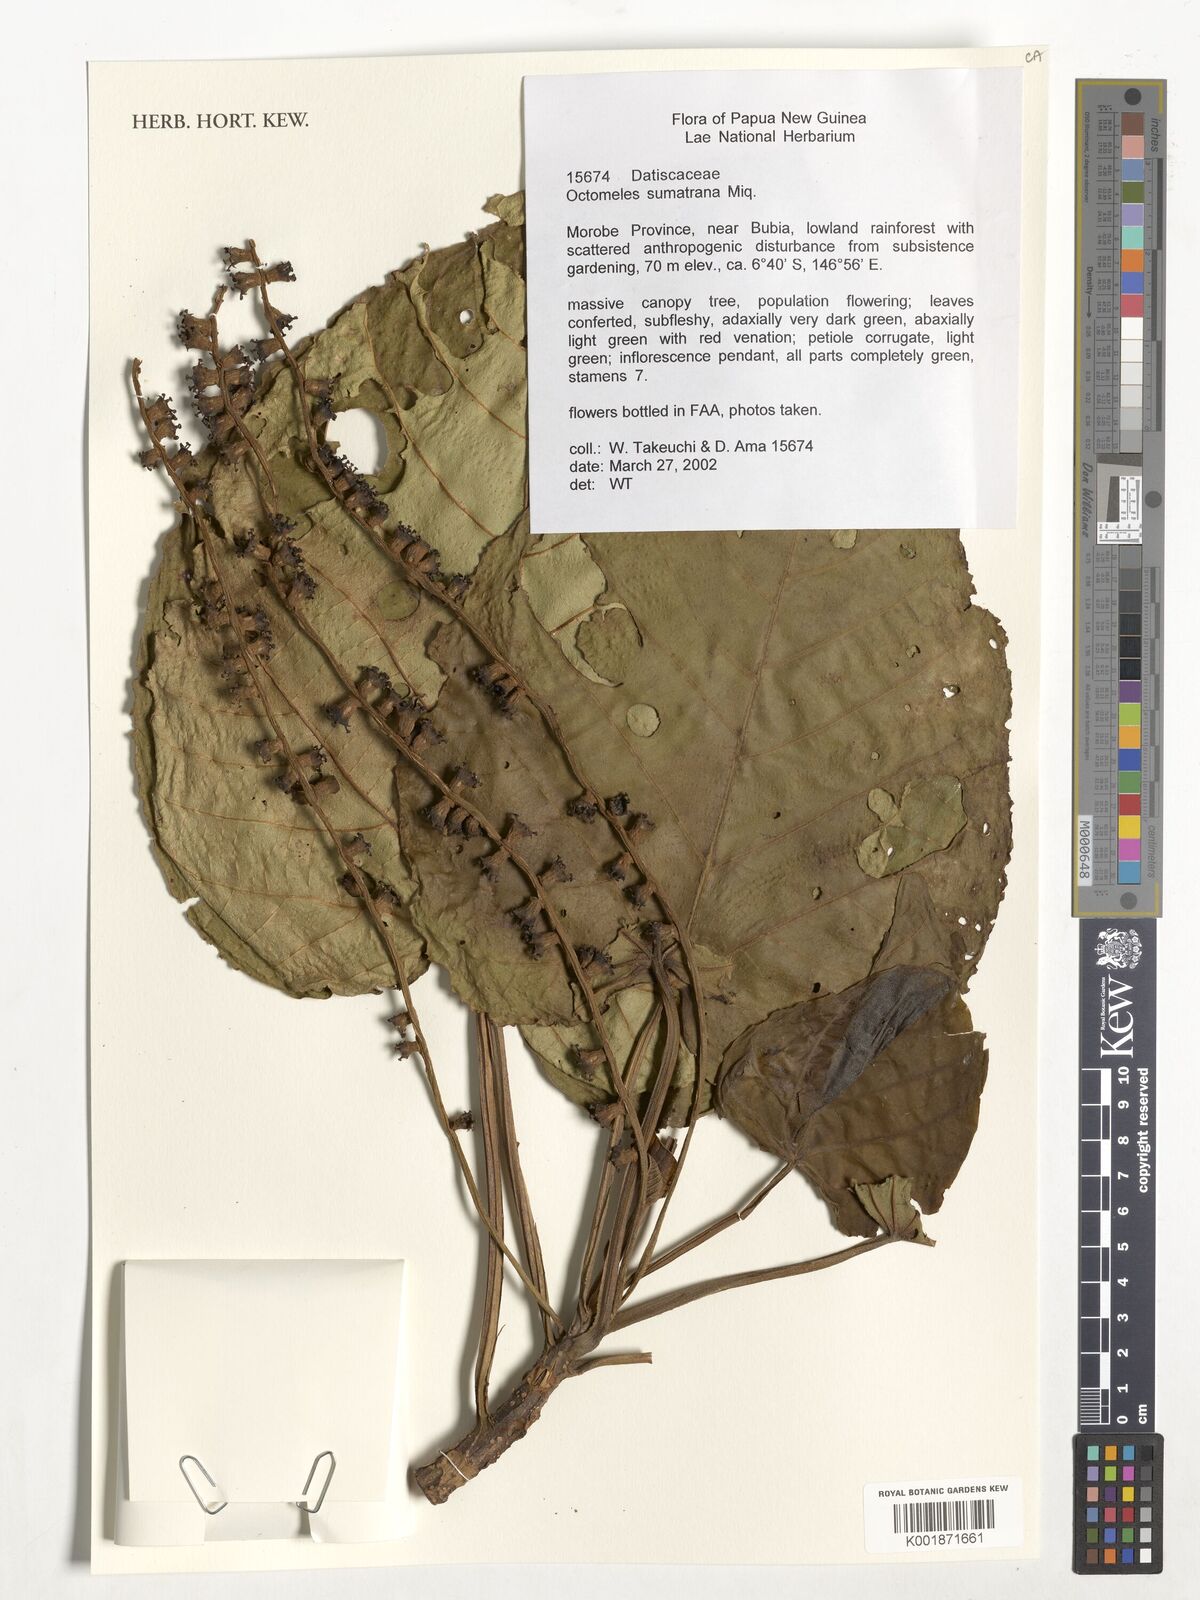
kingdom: Plantae
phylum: Tracheophyta
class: Magnoliopsida
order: Cucurbitales
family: Datiscaceae
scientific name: Datiscaceae
